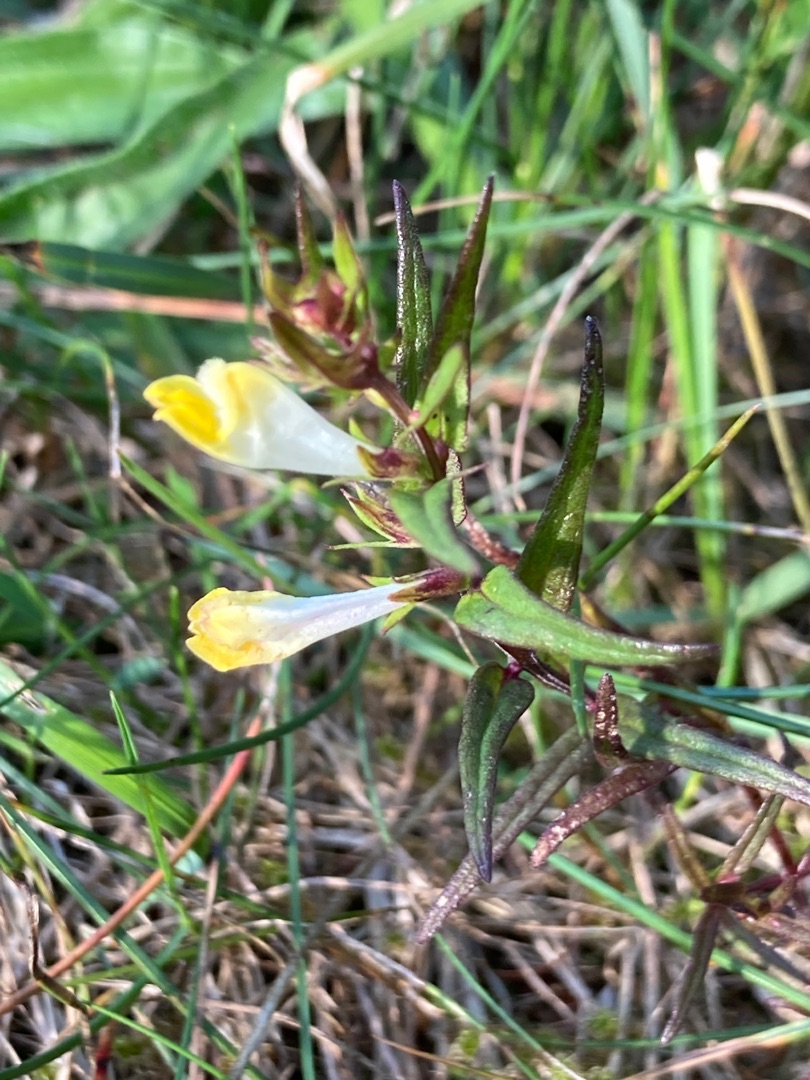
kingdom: Plantae
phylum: Tracheophyta
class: Magnoliopsida
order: Lamiales
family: Orobanchaceae
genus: Melampyrum
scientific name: Melampyrum pratense
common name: Almindelig kohvede
